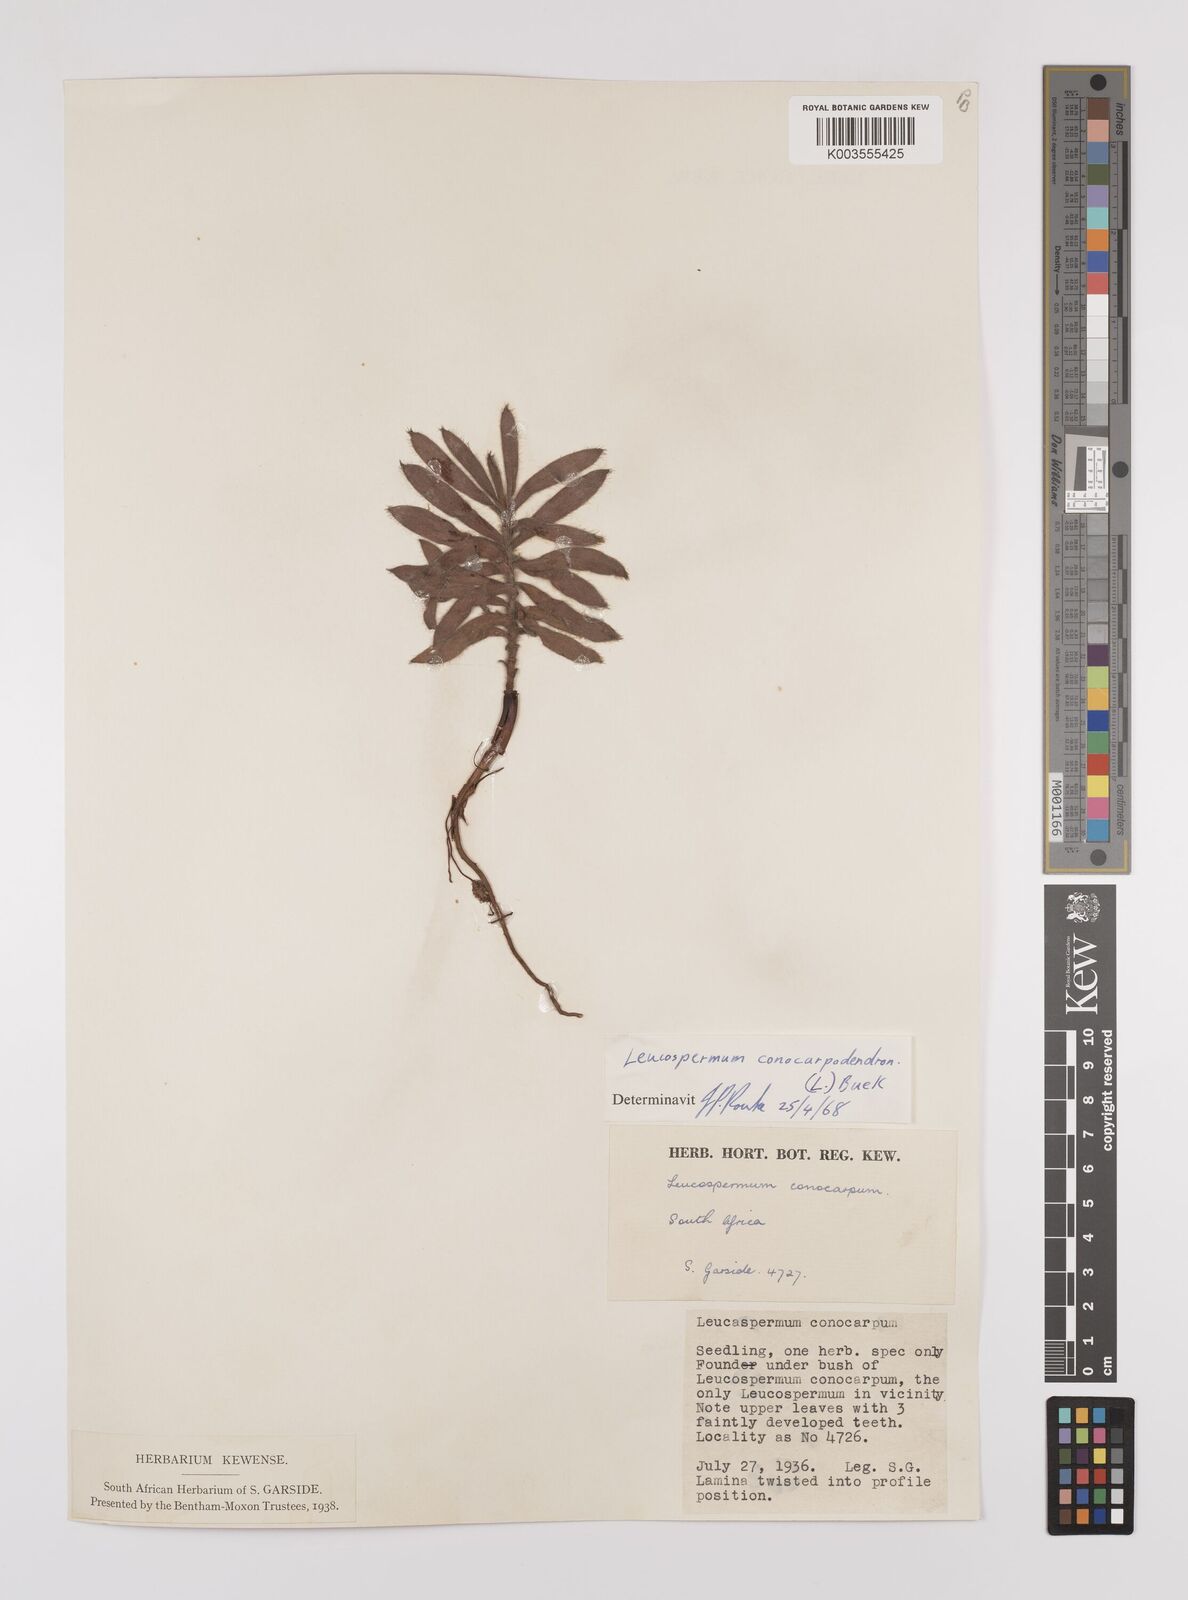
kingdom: Plantae
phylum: Tracheophyta
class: Magnoliopsida
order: Proteales
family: Proteaceae
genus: Leucospermum
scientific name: Leucospermum conocarpodendron
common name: Tree pincushion
